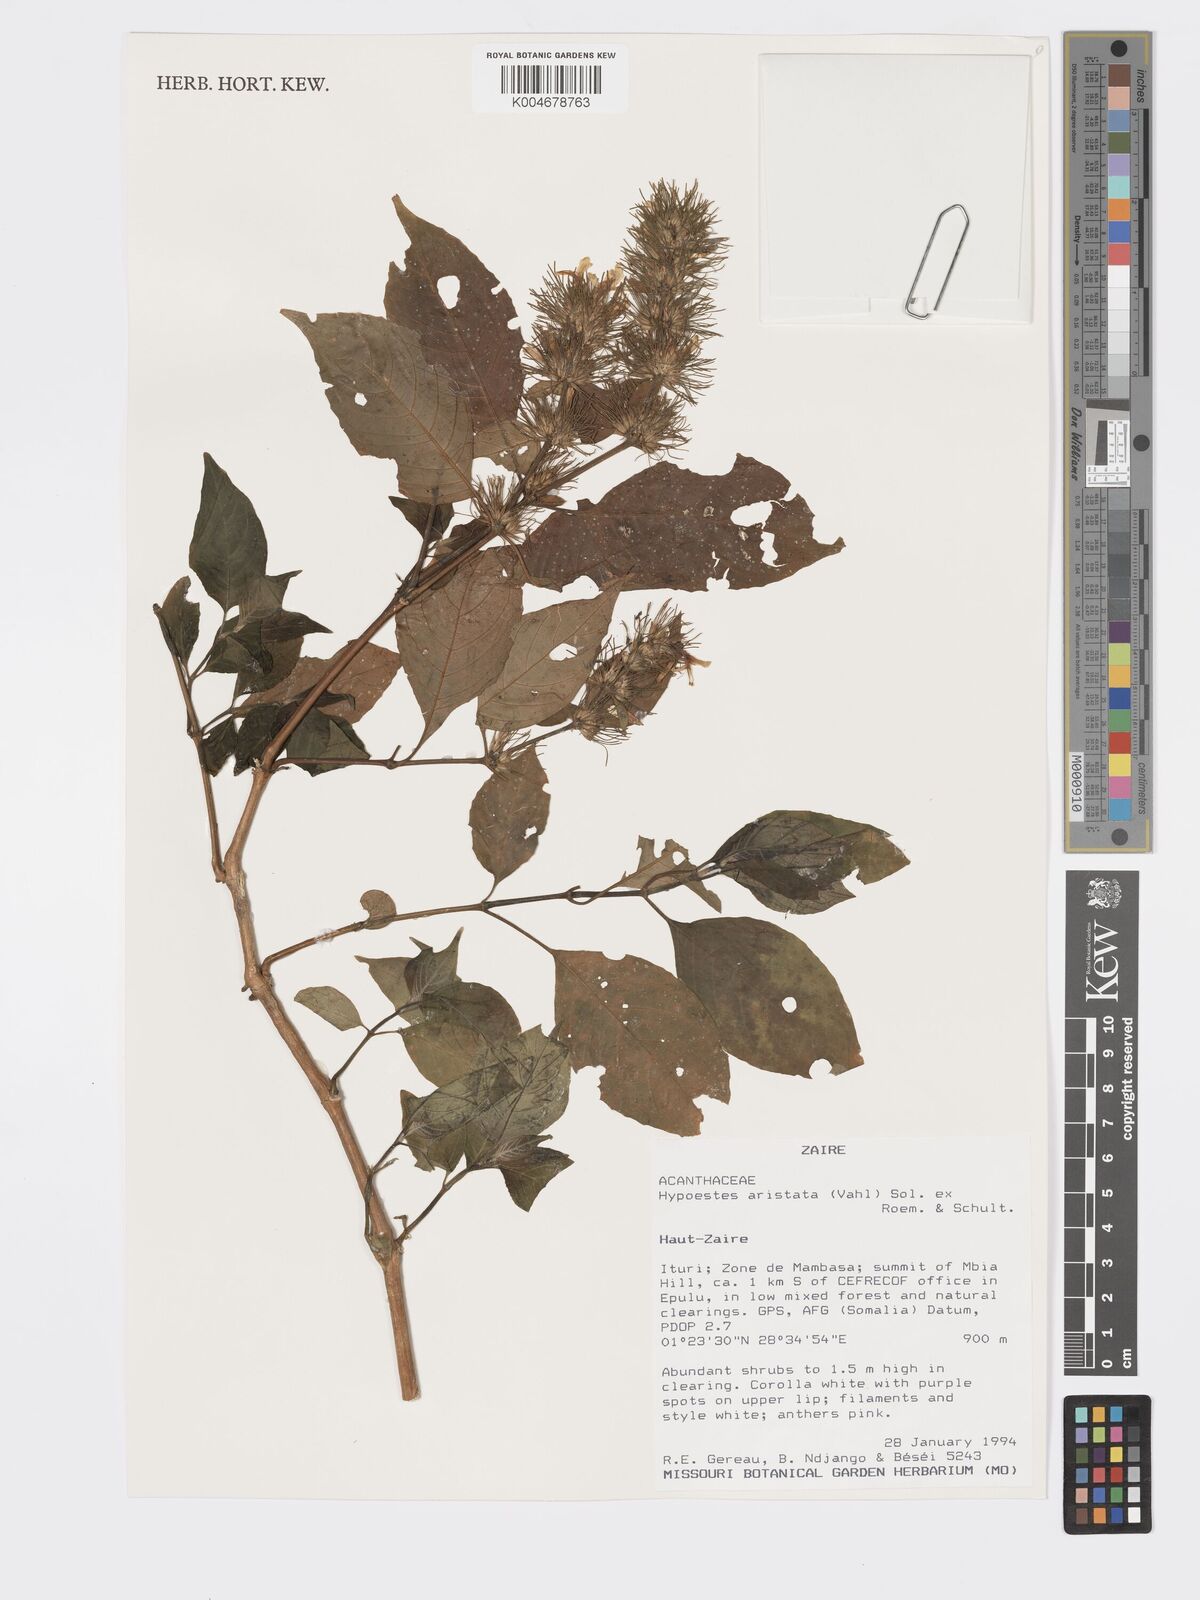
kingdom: Plantae
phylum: Tracheophyta
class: Magnoliopsida
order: Lamiales
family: Acanthaceae
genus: Hypoestes
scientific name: Hypoestes aristata
